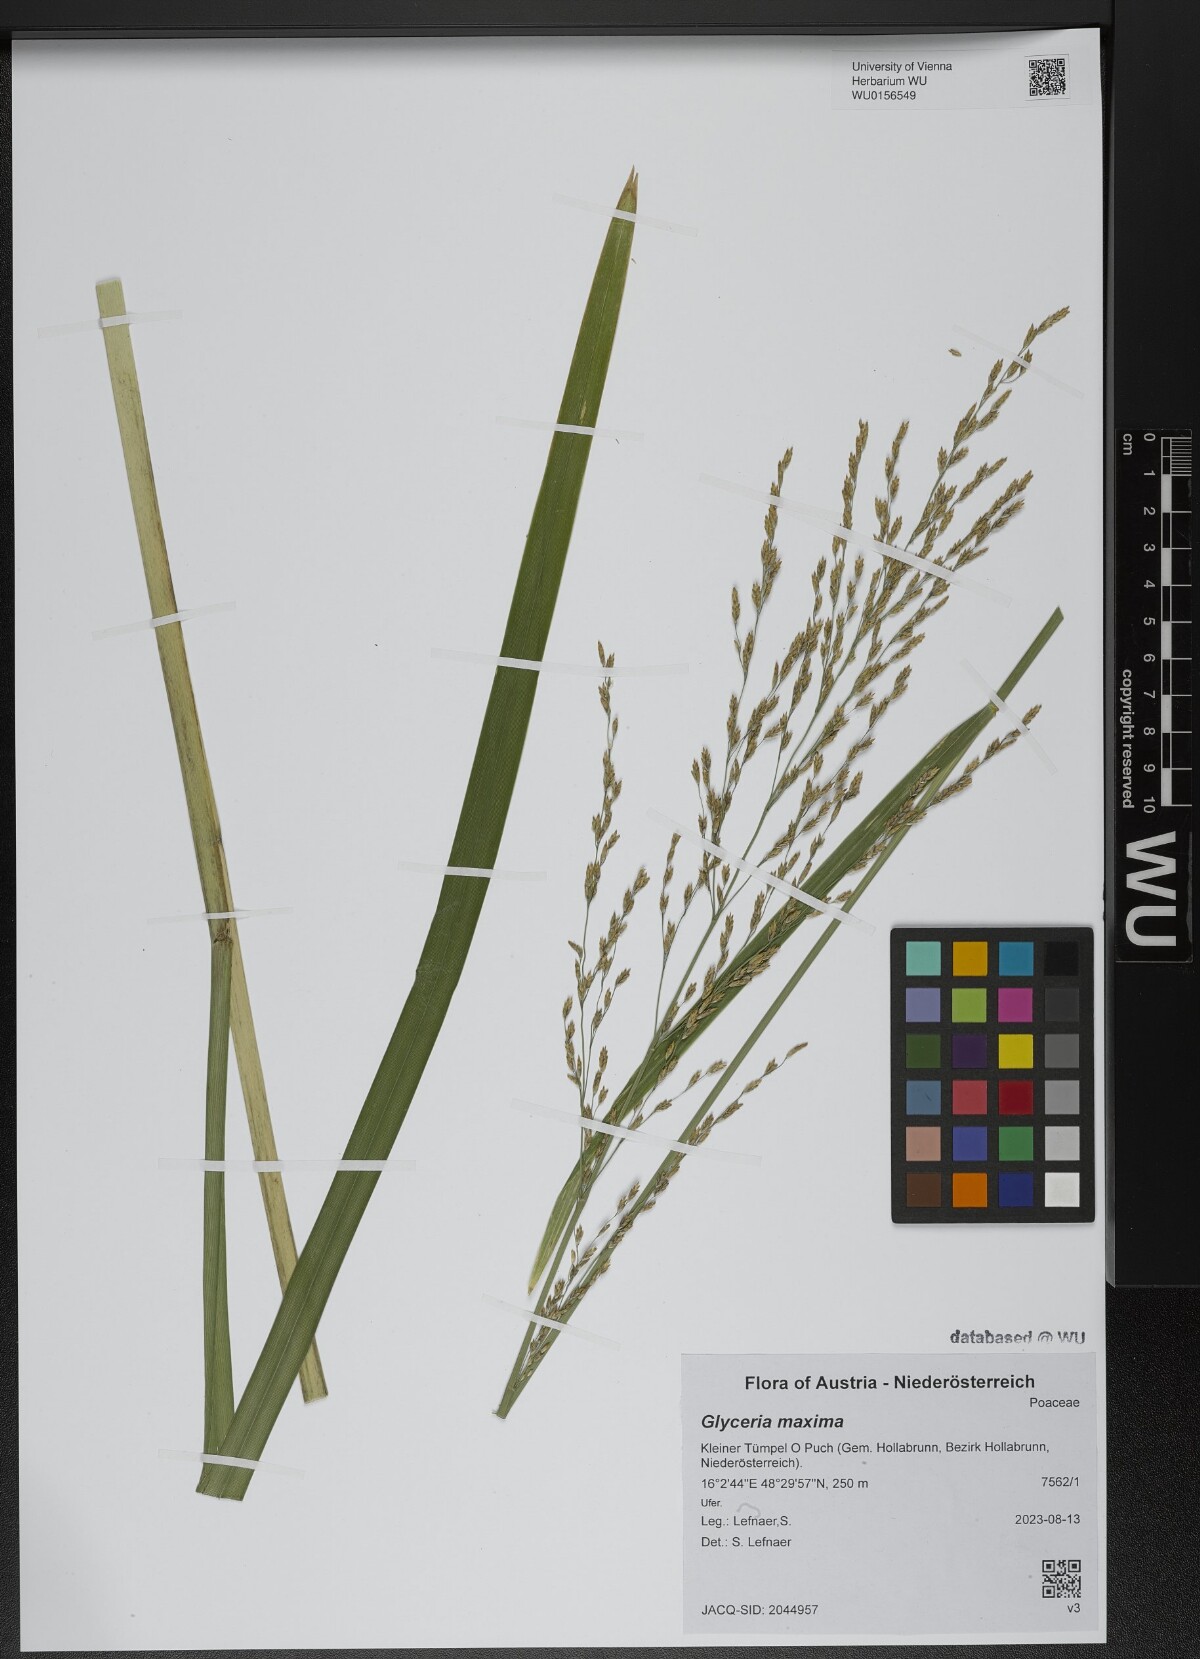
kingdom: Plantae
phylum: Tracheophyta
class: Liliopsida
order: Poales
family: Poaceae
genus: Glyceria
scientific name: Glyceria maxima
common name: Reed mannagrass
